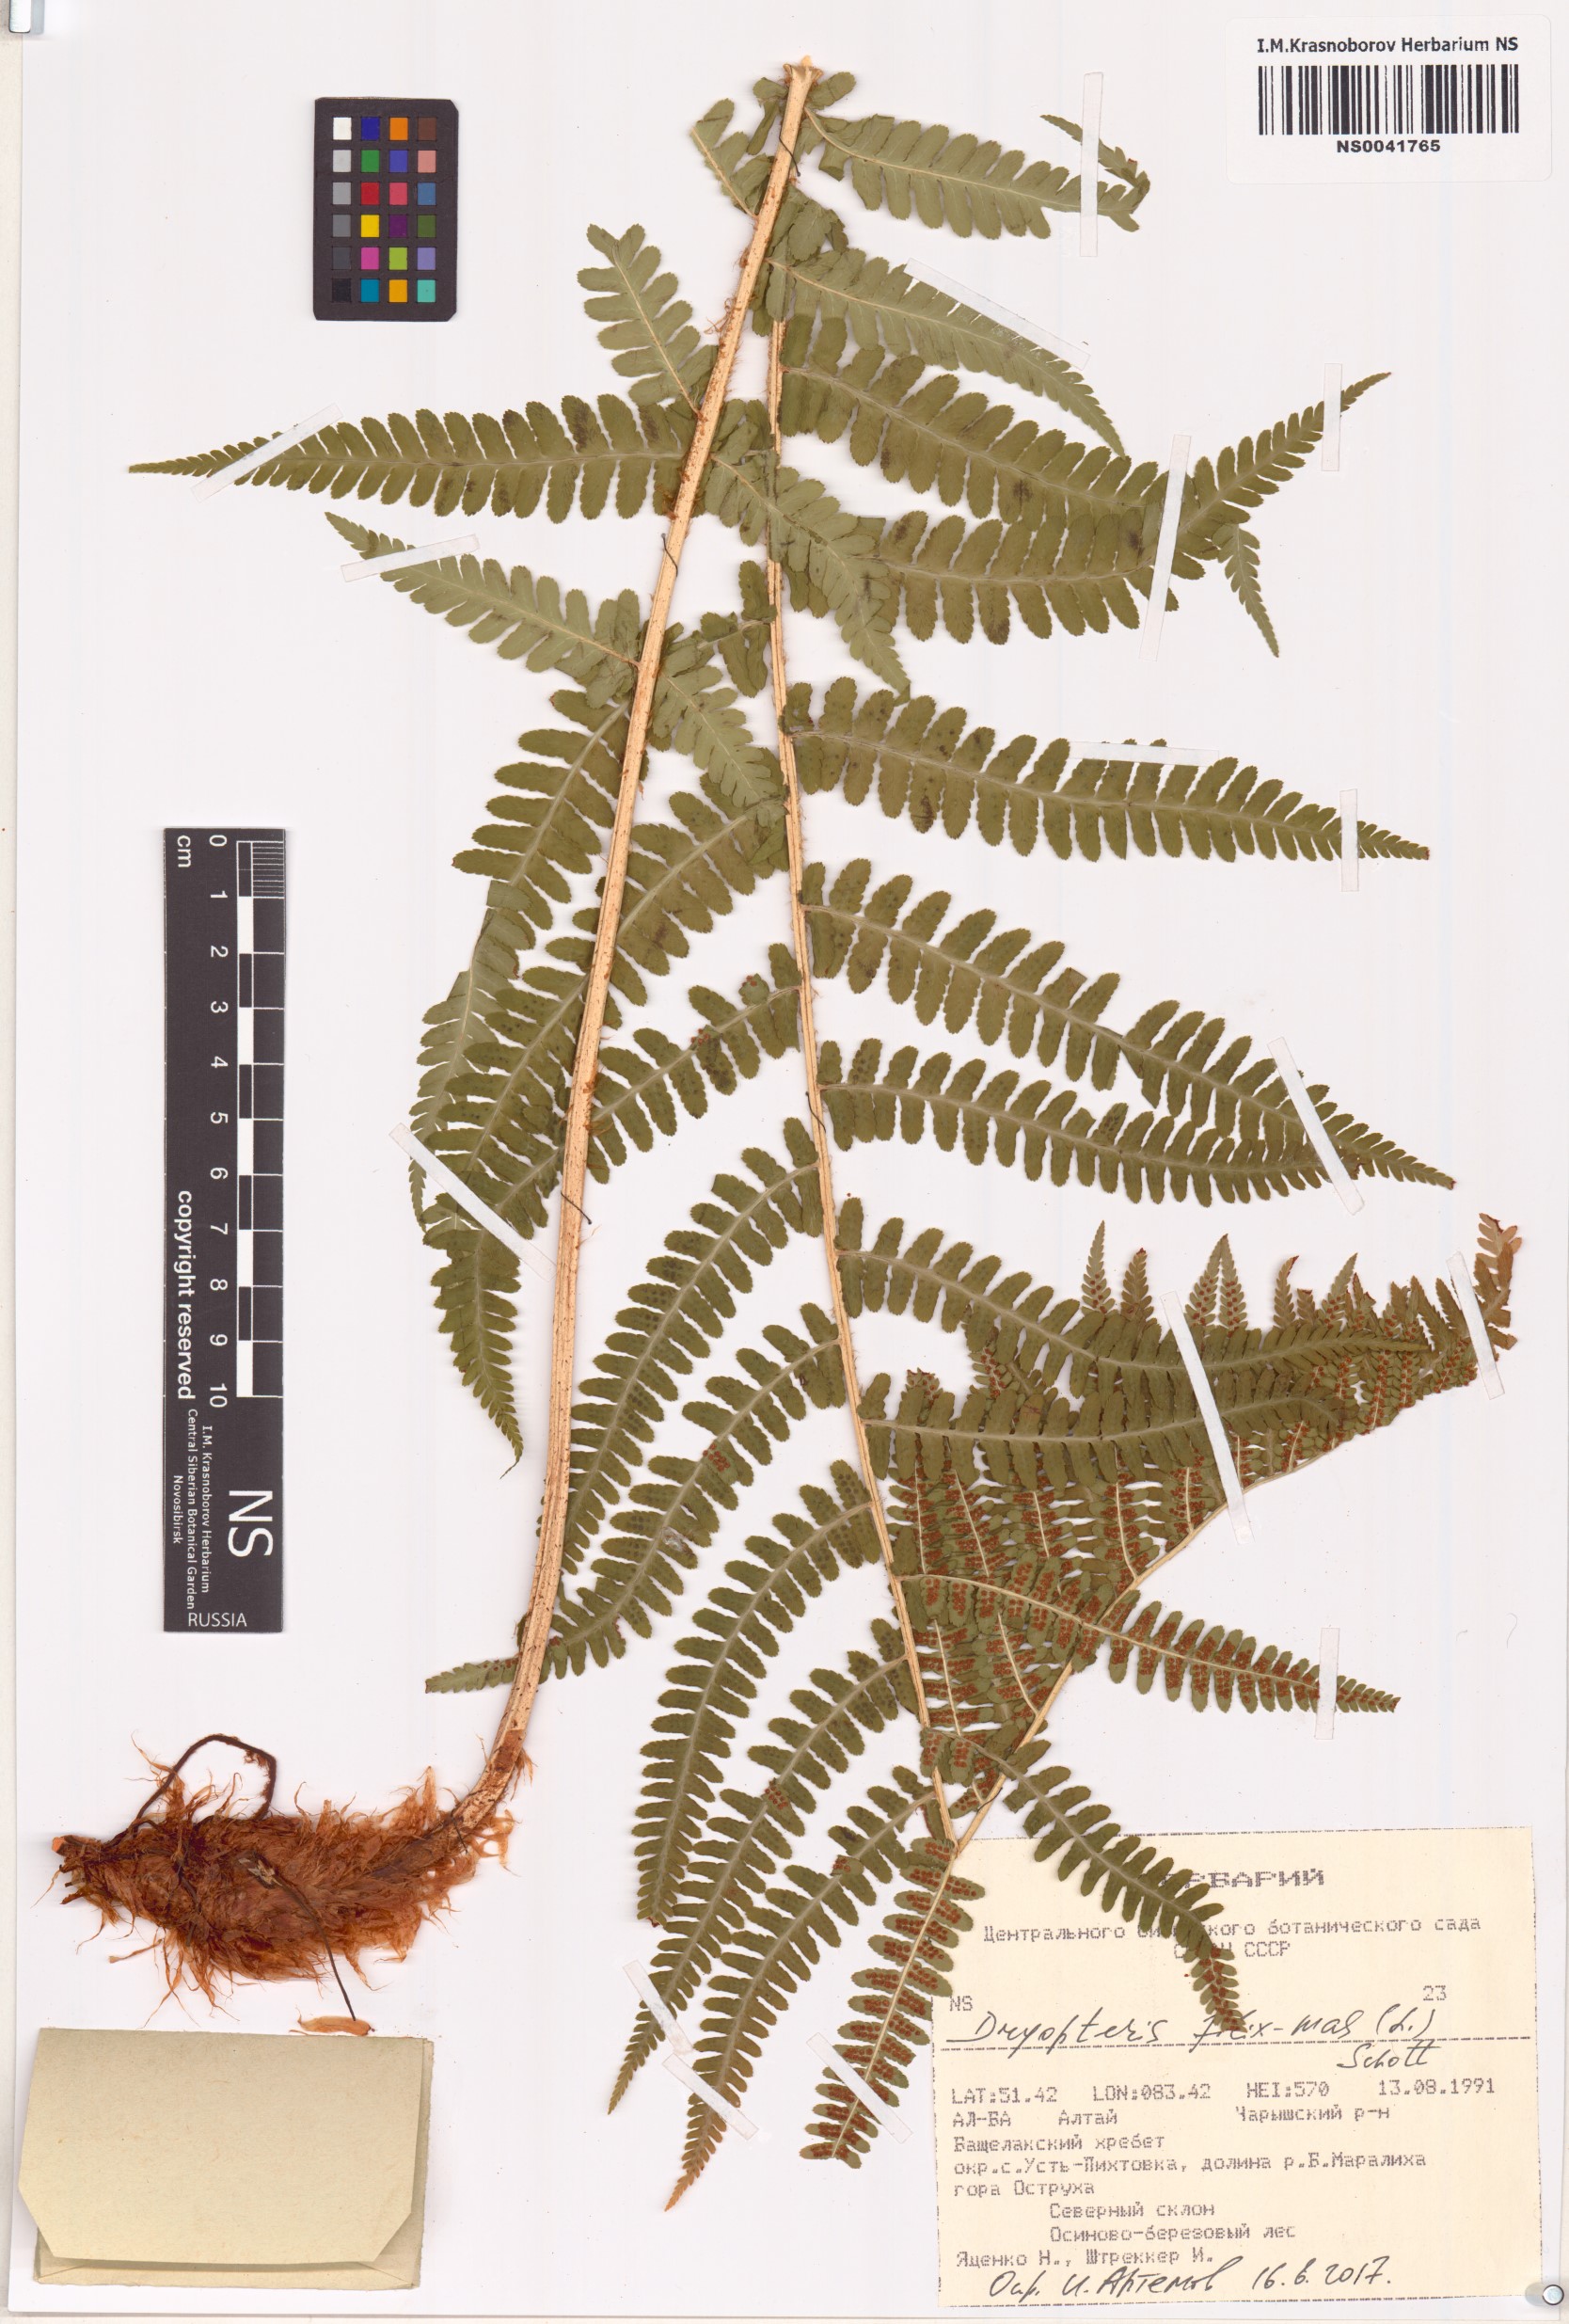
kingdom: Plantae
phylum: Tracheophyta
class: Polypodiopsida
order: Polypodiales
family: Dryopteridaceae
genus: Dryopteris
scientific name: Dryopteris filix-mas
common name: Male fern
